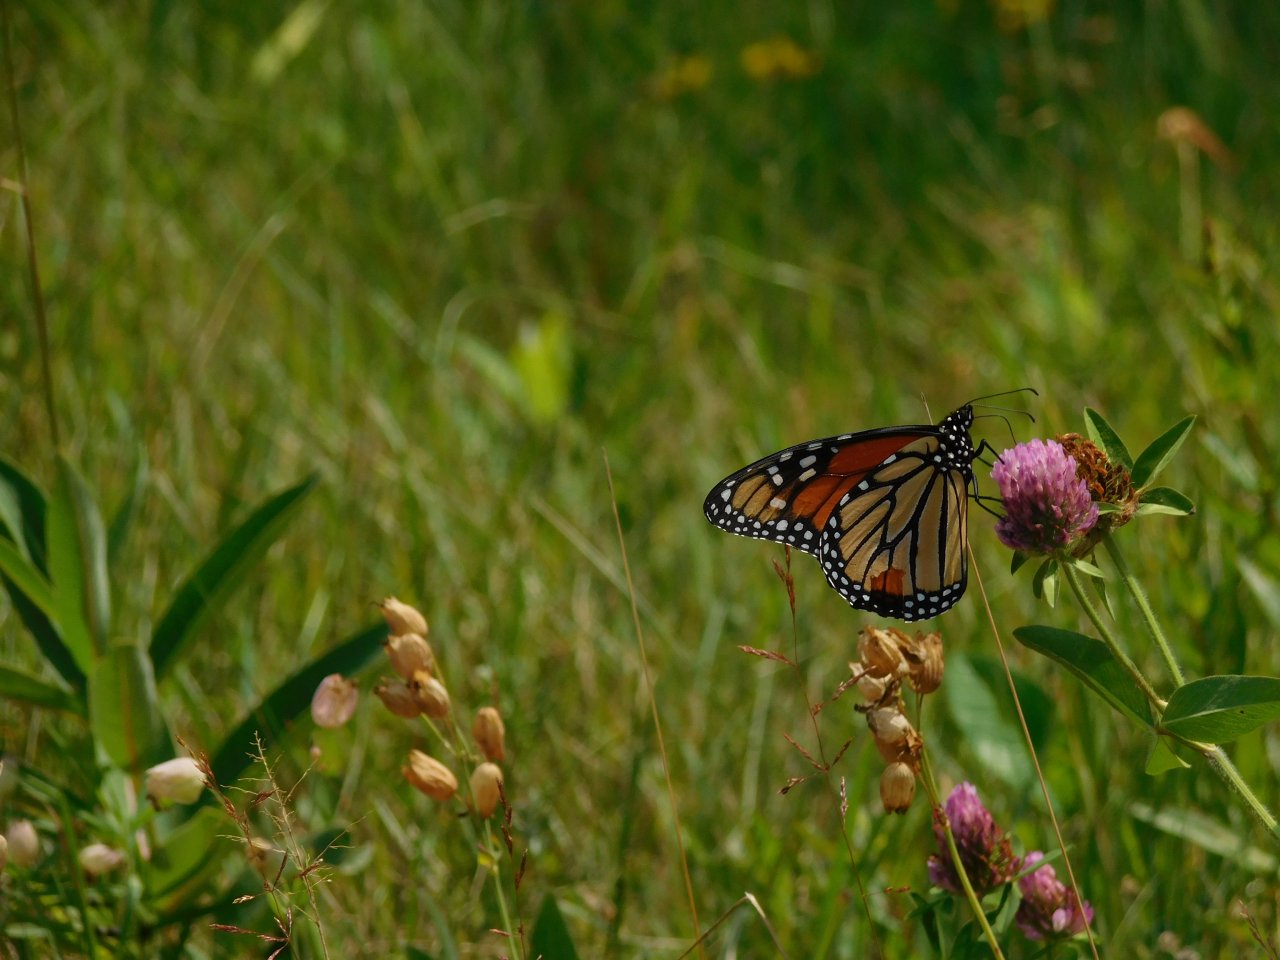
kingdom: Animalia
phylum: Arthropoda
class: Insecta
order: Lepidoptera
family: Nymphalidae
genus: Danaus
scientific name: Danaus plexippus
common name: Monarch
